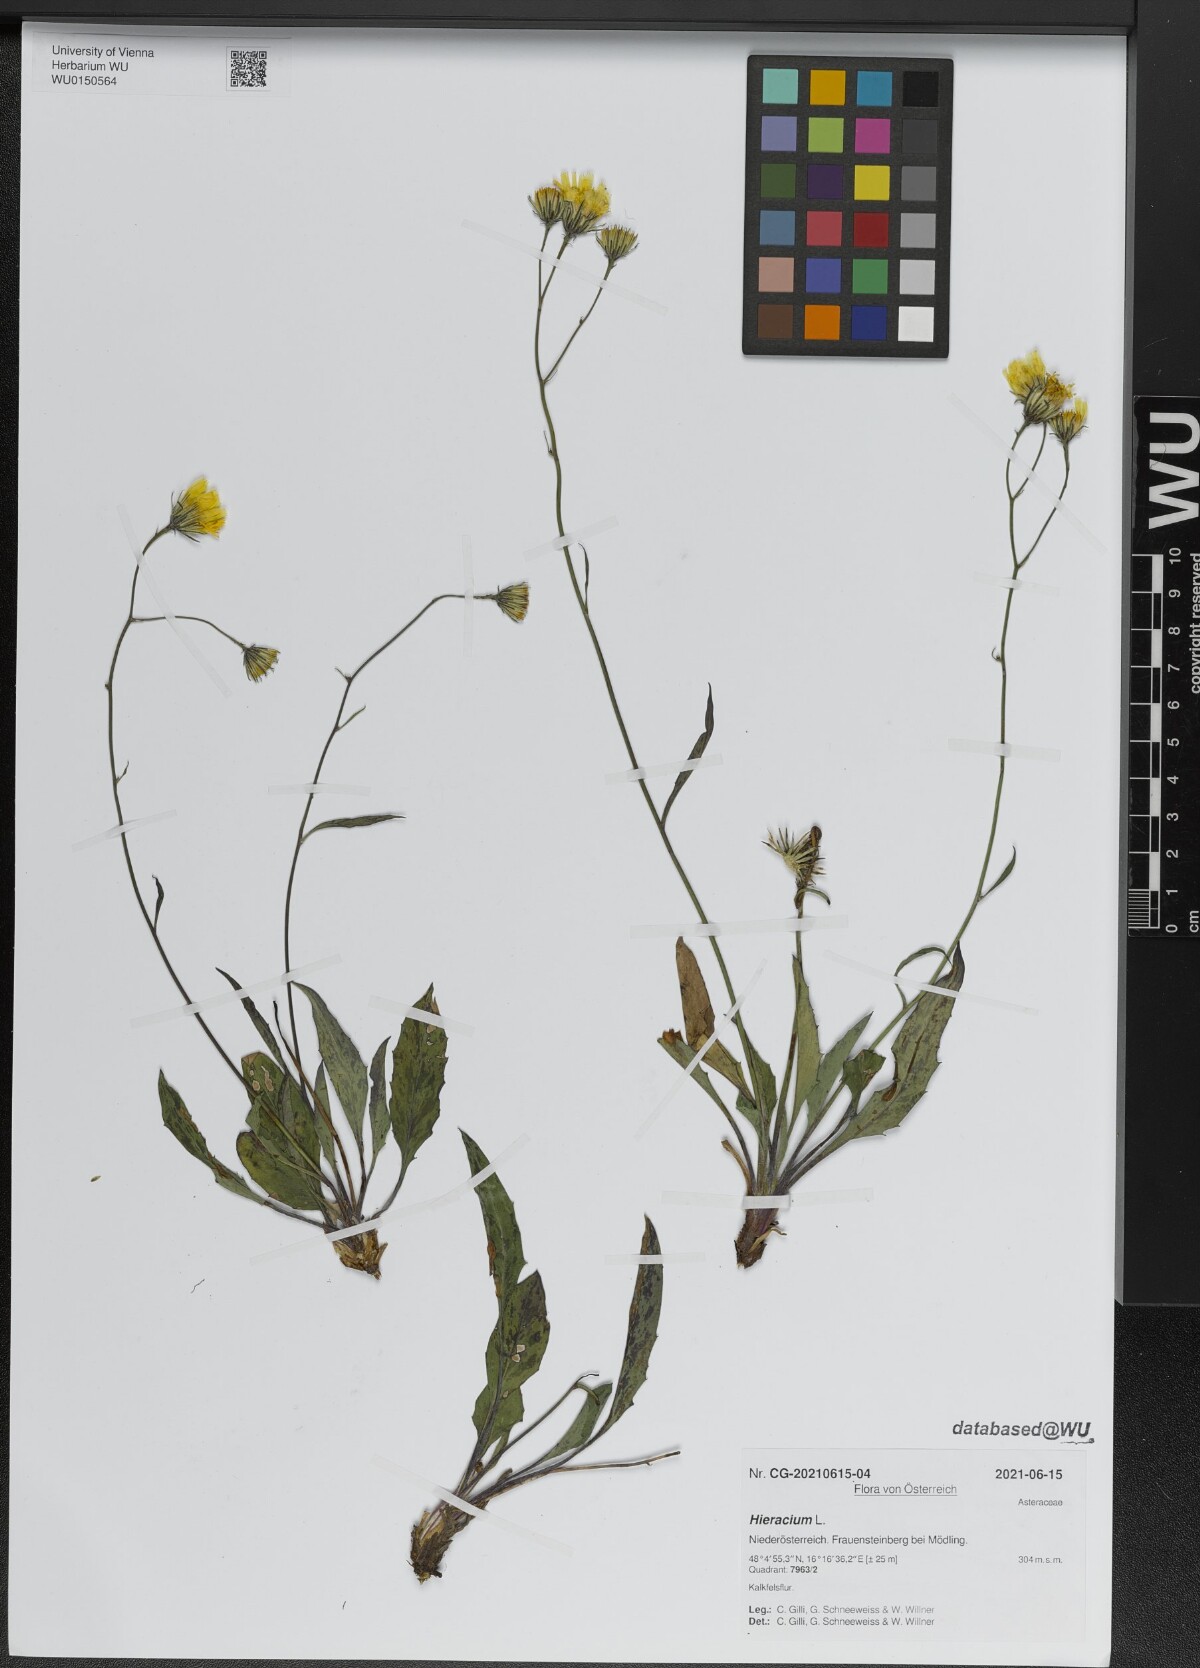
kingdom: Plantae
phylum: Tracheophyta
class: Magnoliopsida
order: Asterales
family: Asteraceae
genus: Hieracium
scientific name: Hieracium
